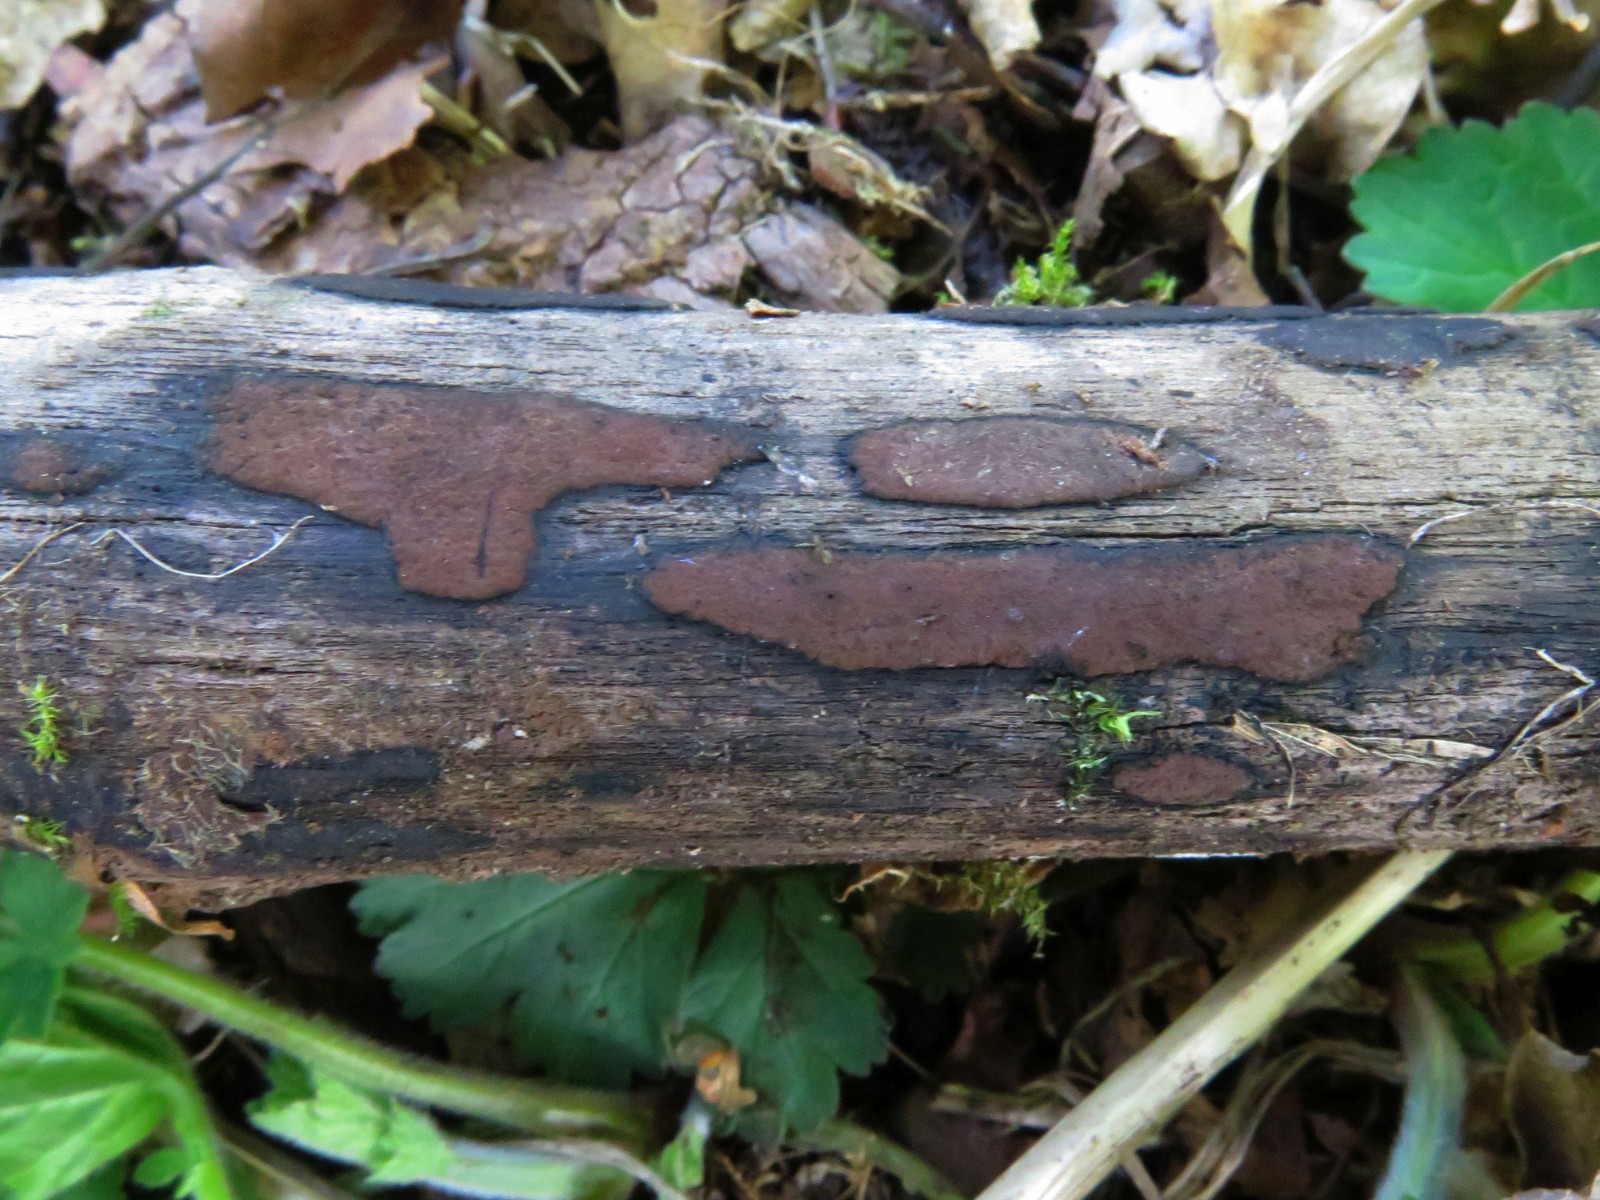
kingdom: Fungi
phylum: Ascomycota
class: Sordariomycetes
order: Xylariales
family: Hypoxylaceae
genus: Hypoxylon
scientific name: Hypoxylon petriniae
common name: nedsænket kulbær
